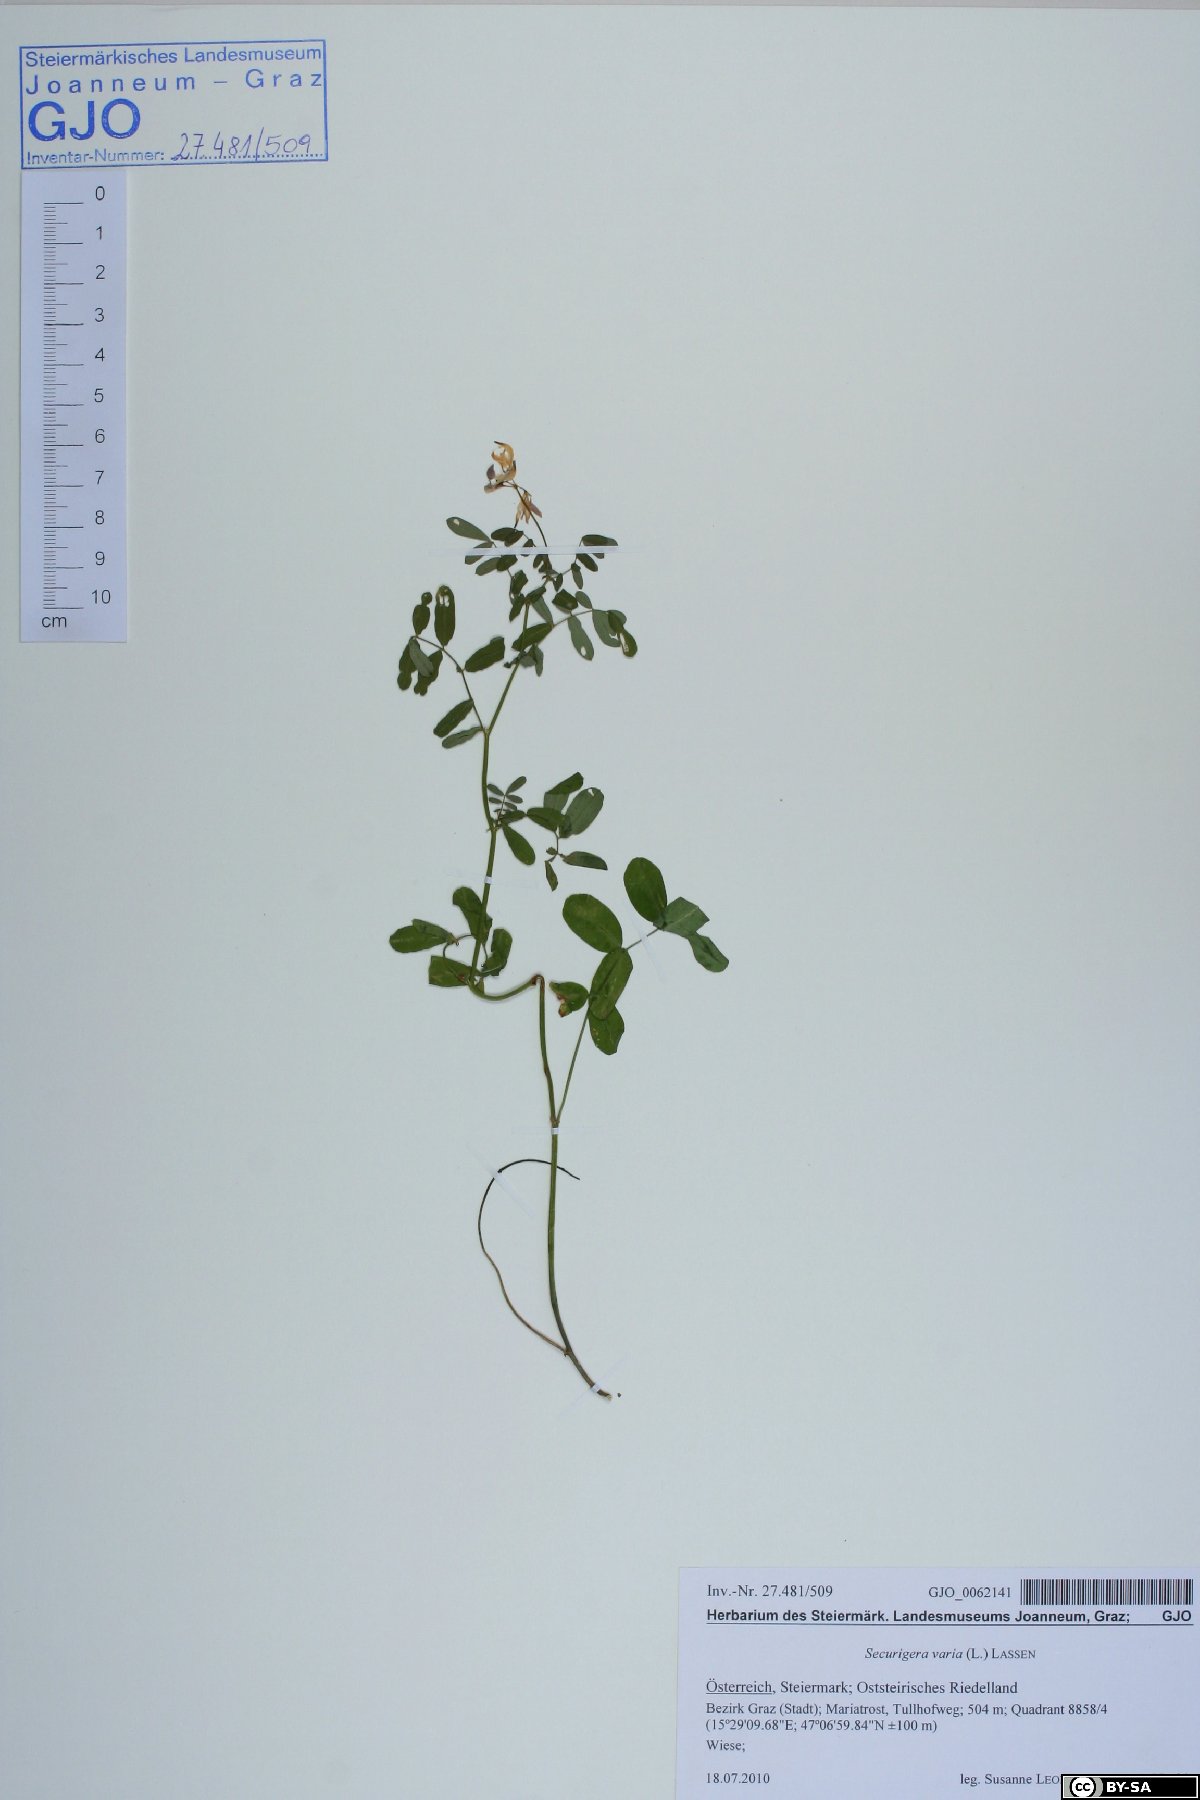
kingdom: Plantae
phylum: Tracheophyta
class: Magnoliopsida
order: Fabales
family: Fabaceae
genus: Coronilla
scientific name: Coronilla varia
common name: Crownvetch
